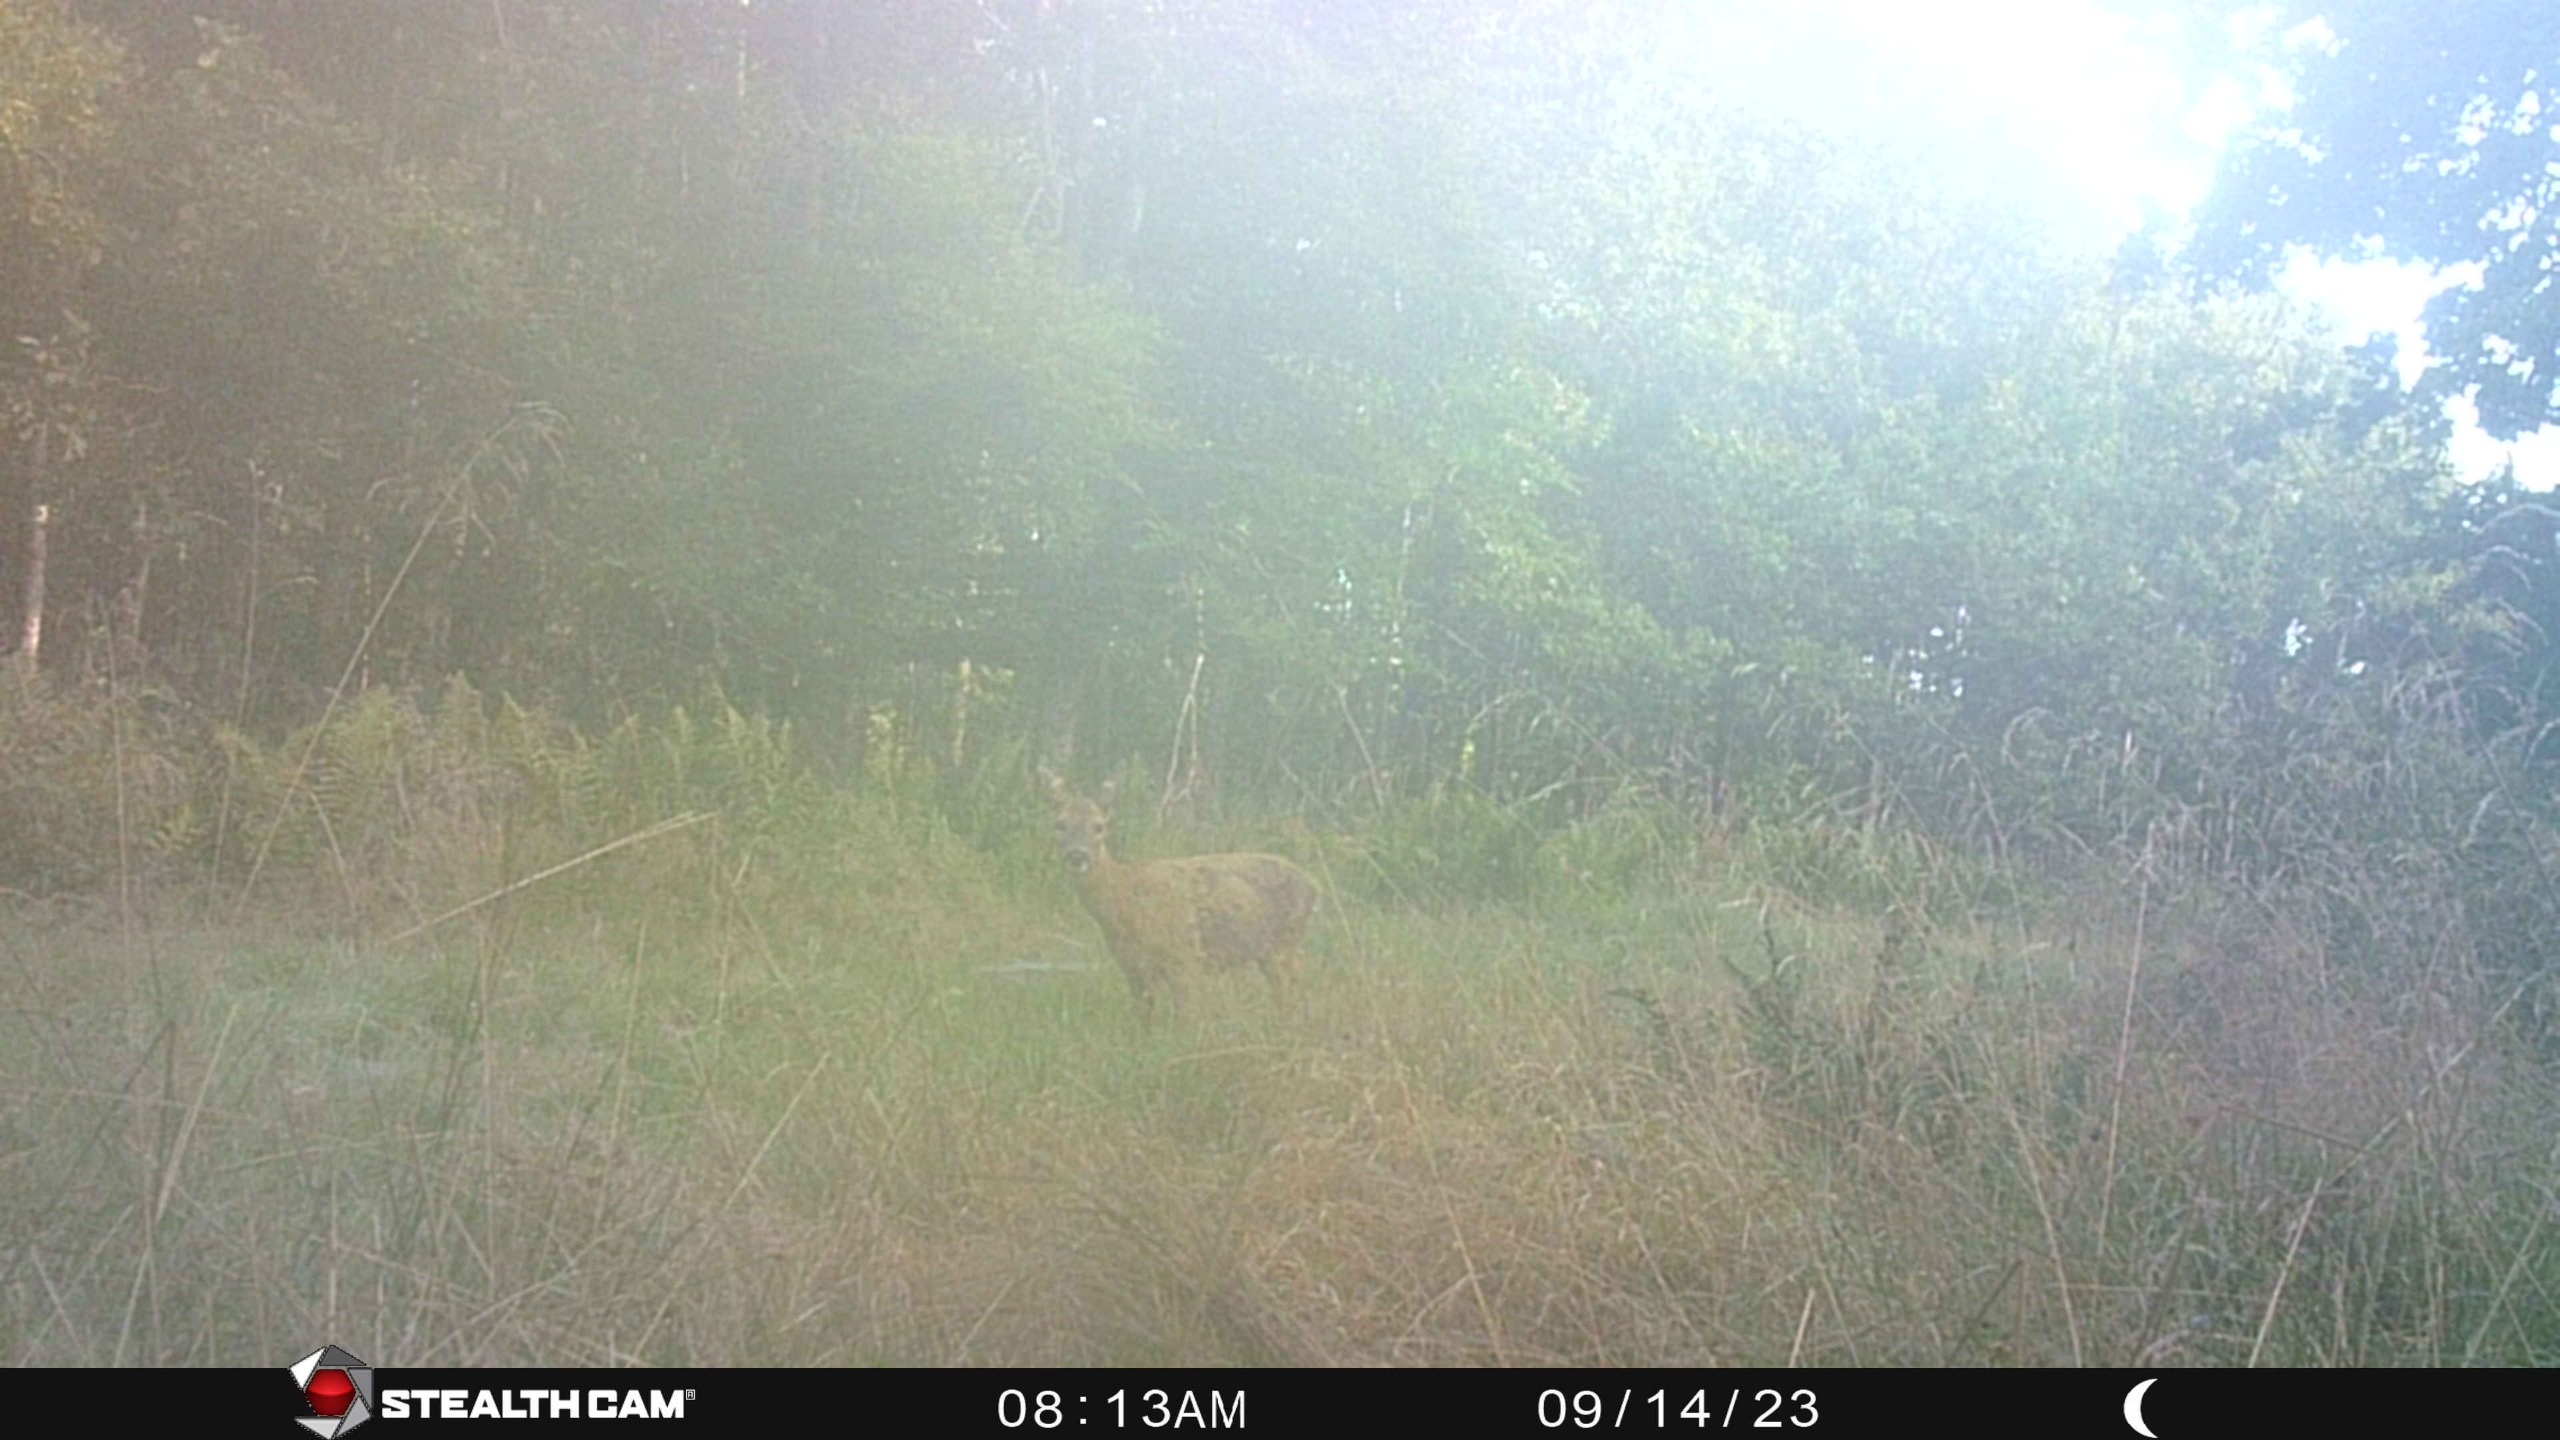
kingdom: Animalia
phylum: Chordata
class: Mammalia
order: Artiodactyla
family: Cervidae
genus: Capreolus
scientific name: Capreolus capreolus
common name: Rådyr
